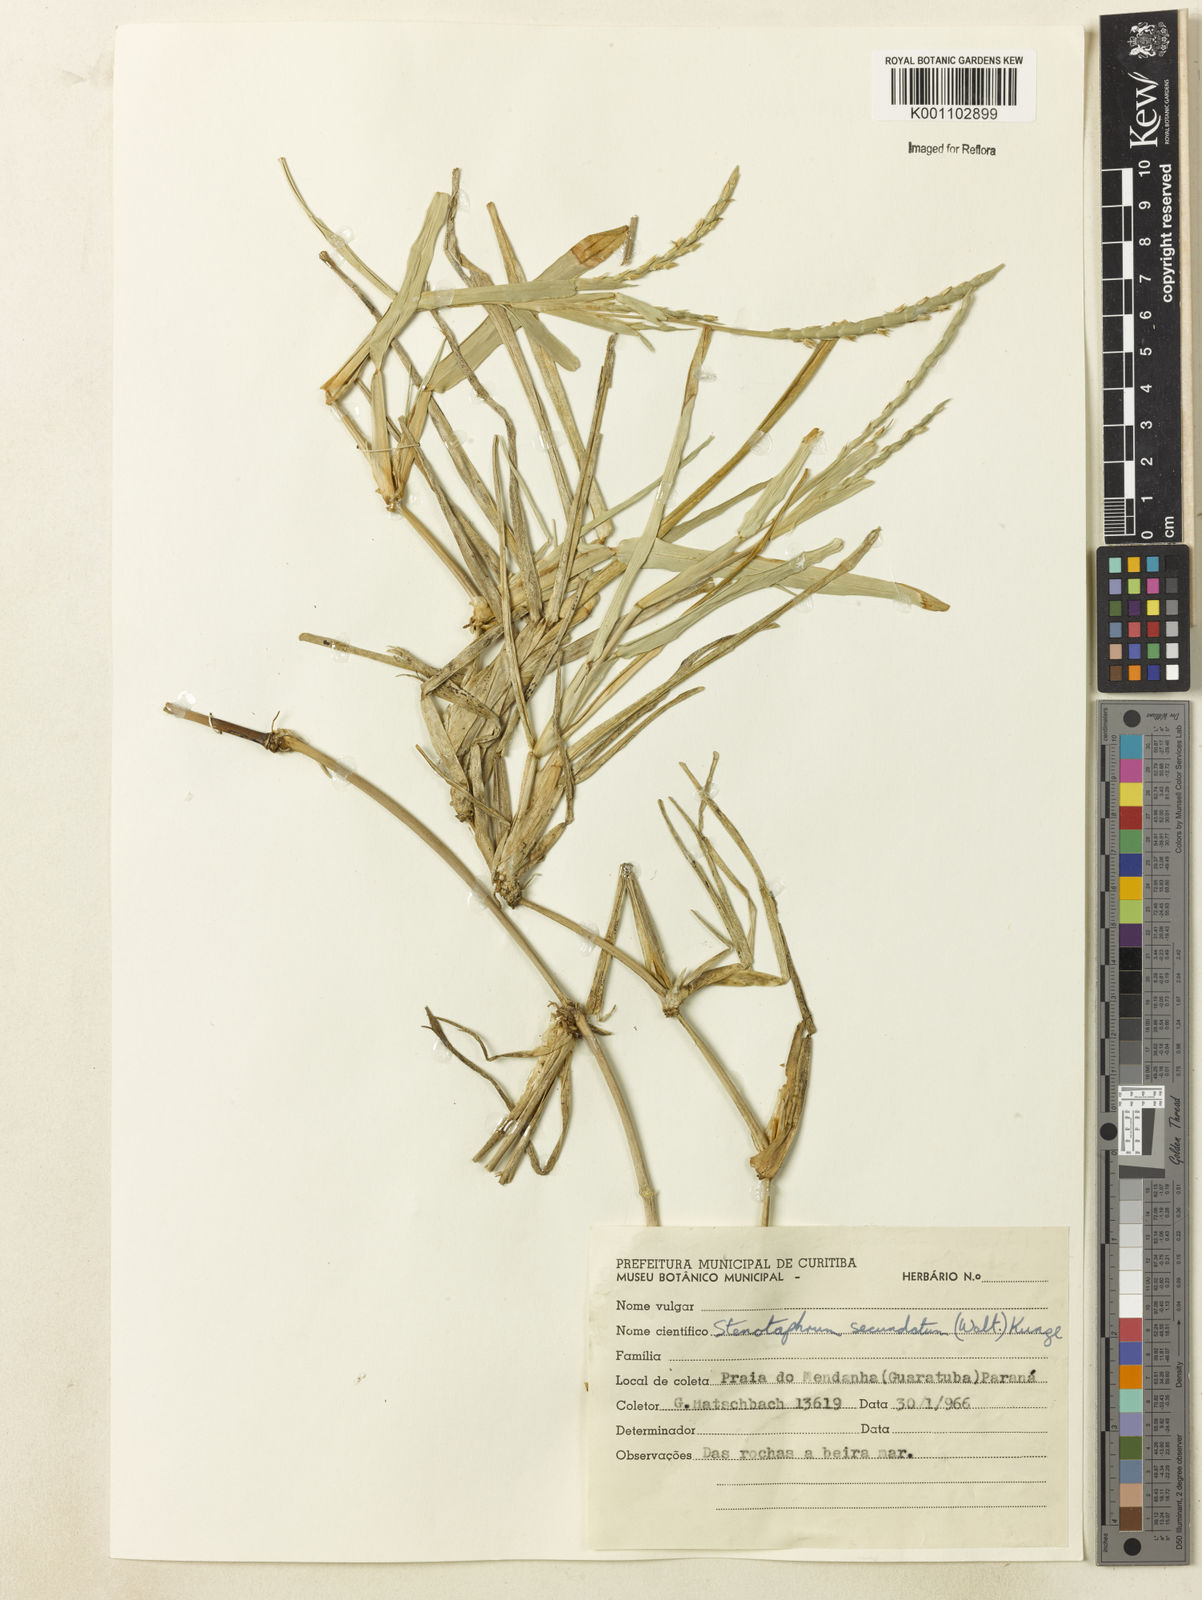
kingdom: Plantae
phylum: Tracheophyta
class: Liliopsida
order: Poales
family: Poaceae
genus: Stenotaphrum
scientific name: Stenotaphrum secundatum
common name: St. augustine grass
